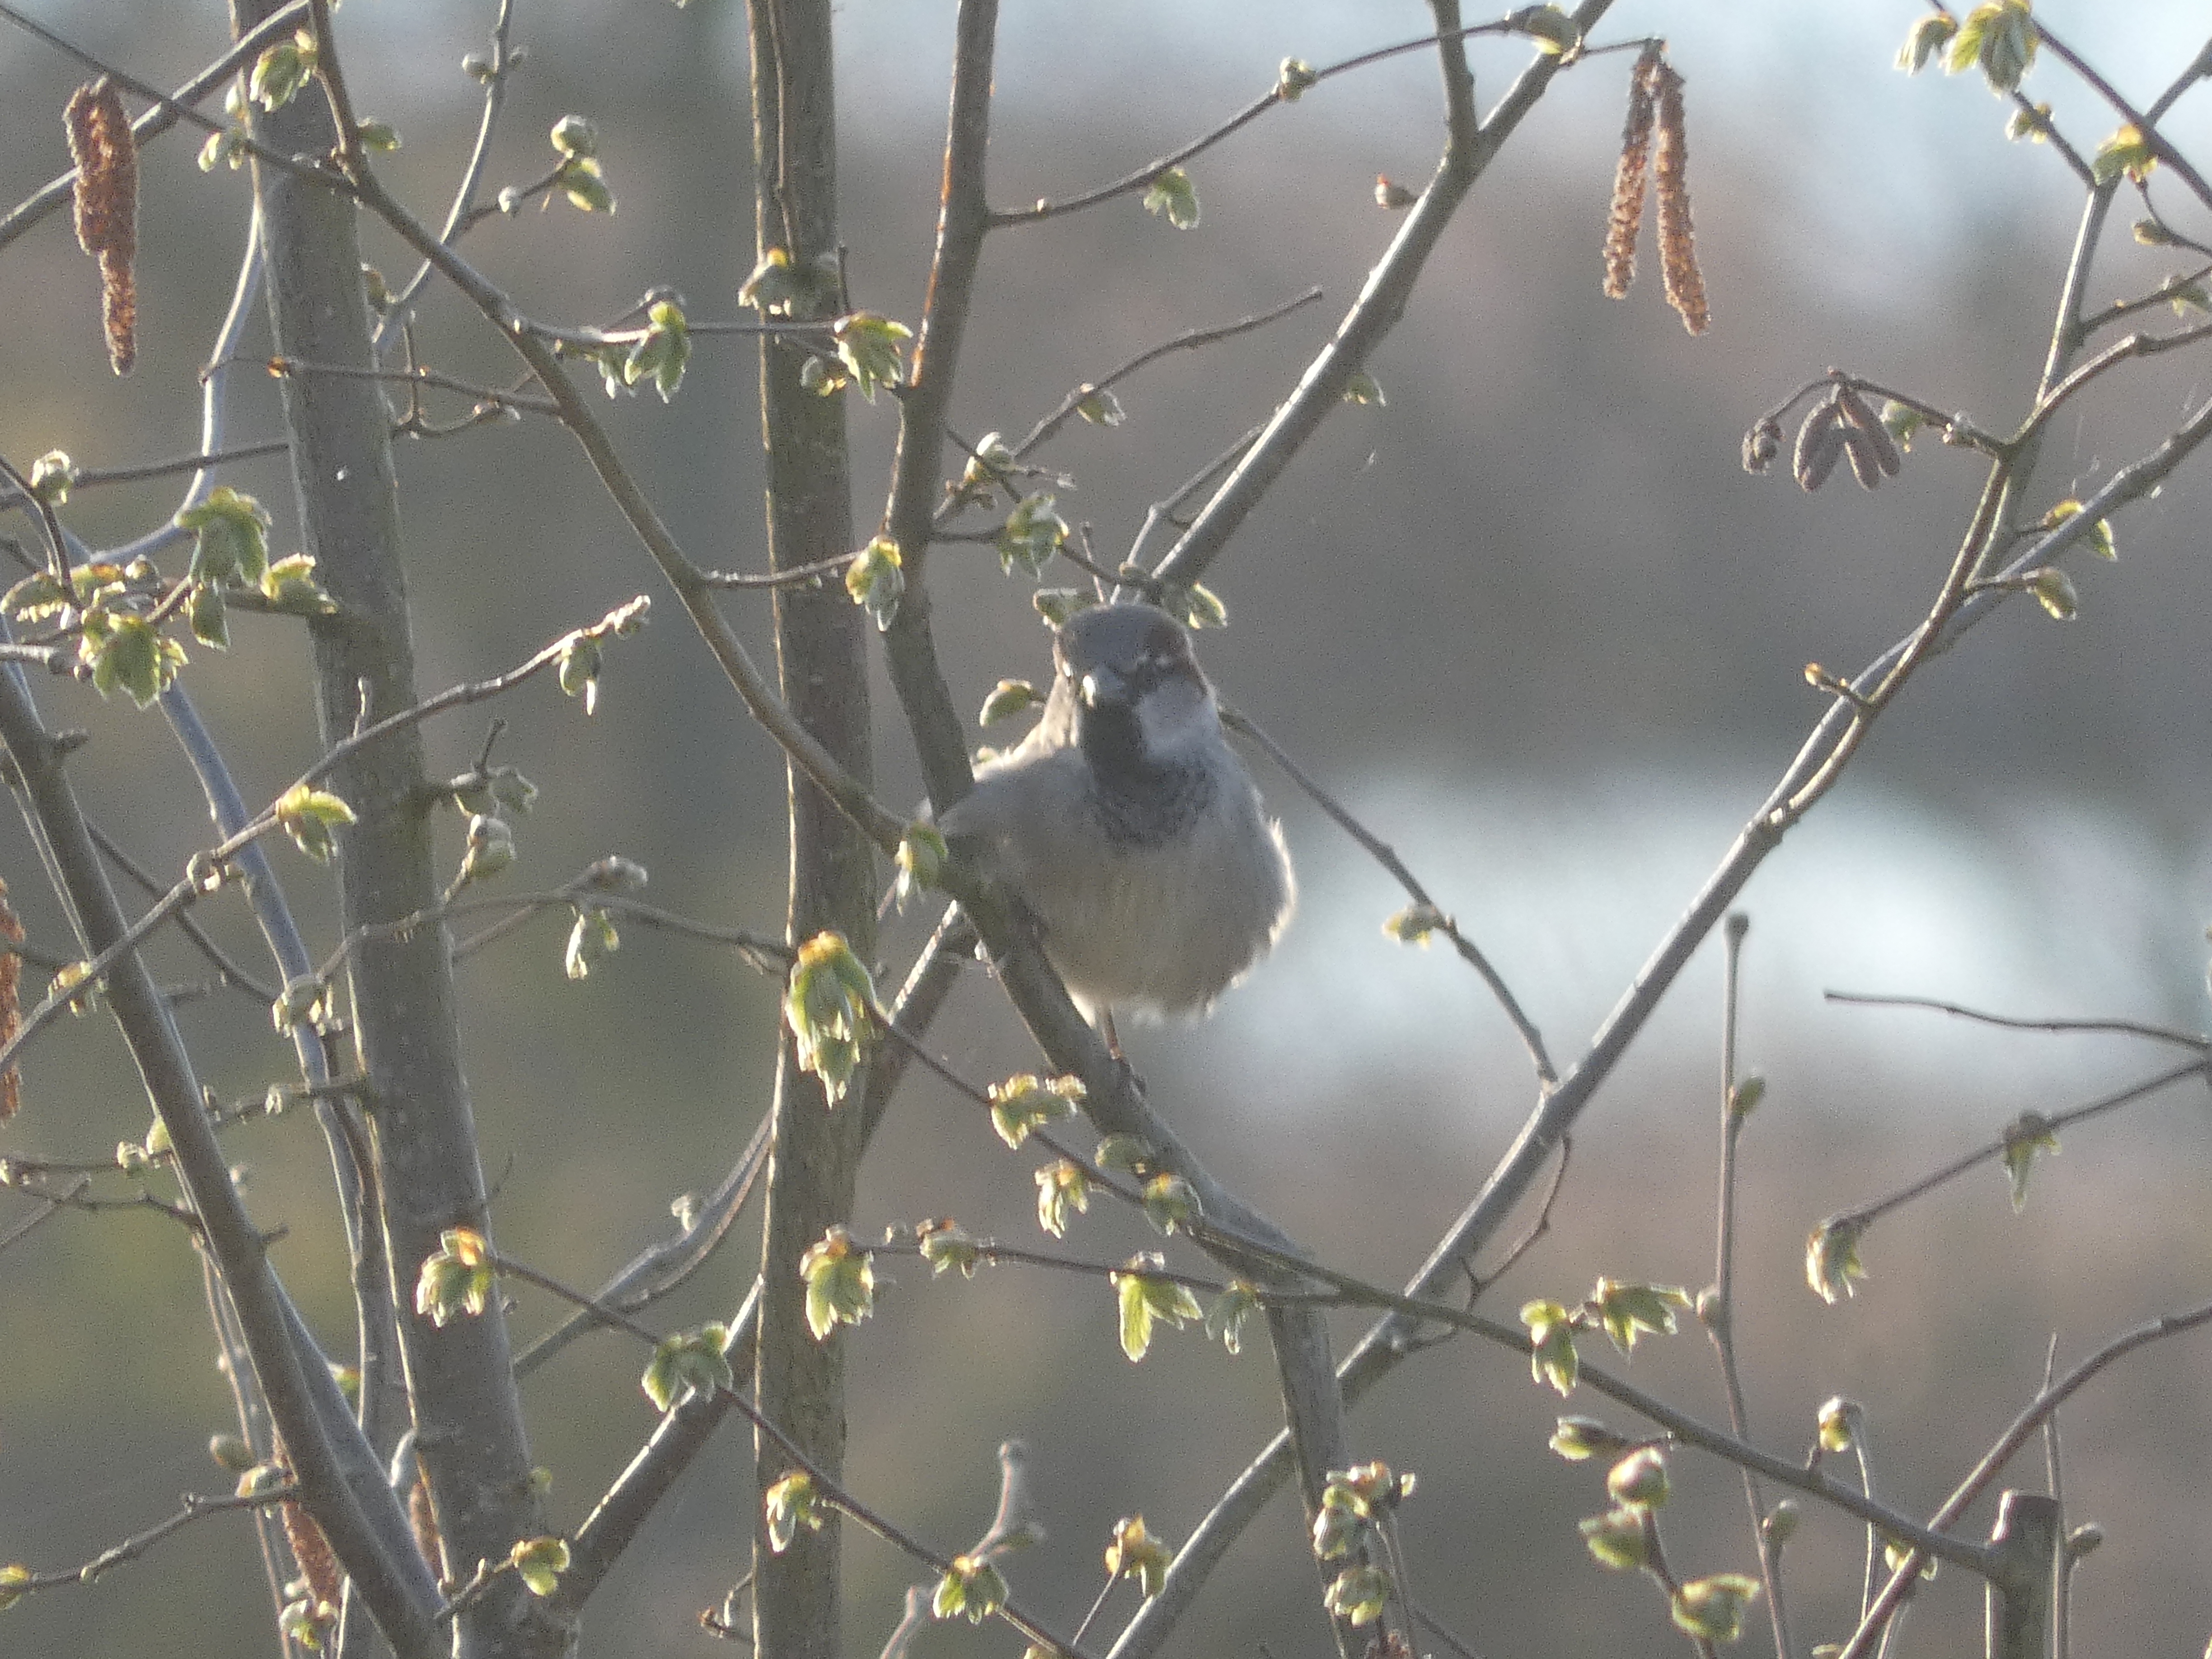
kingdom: Animalia
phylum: Chordata
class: Aves
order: Passeriformes
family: Passeridae
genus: Passer
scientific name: Passer domesticus
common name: Gråspurv
